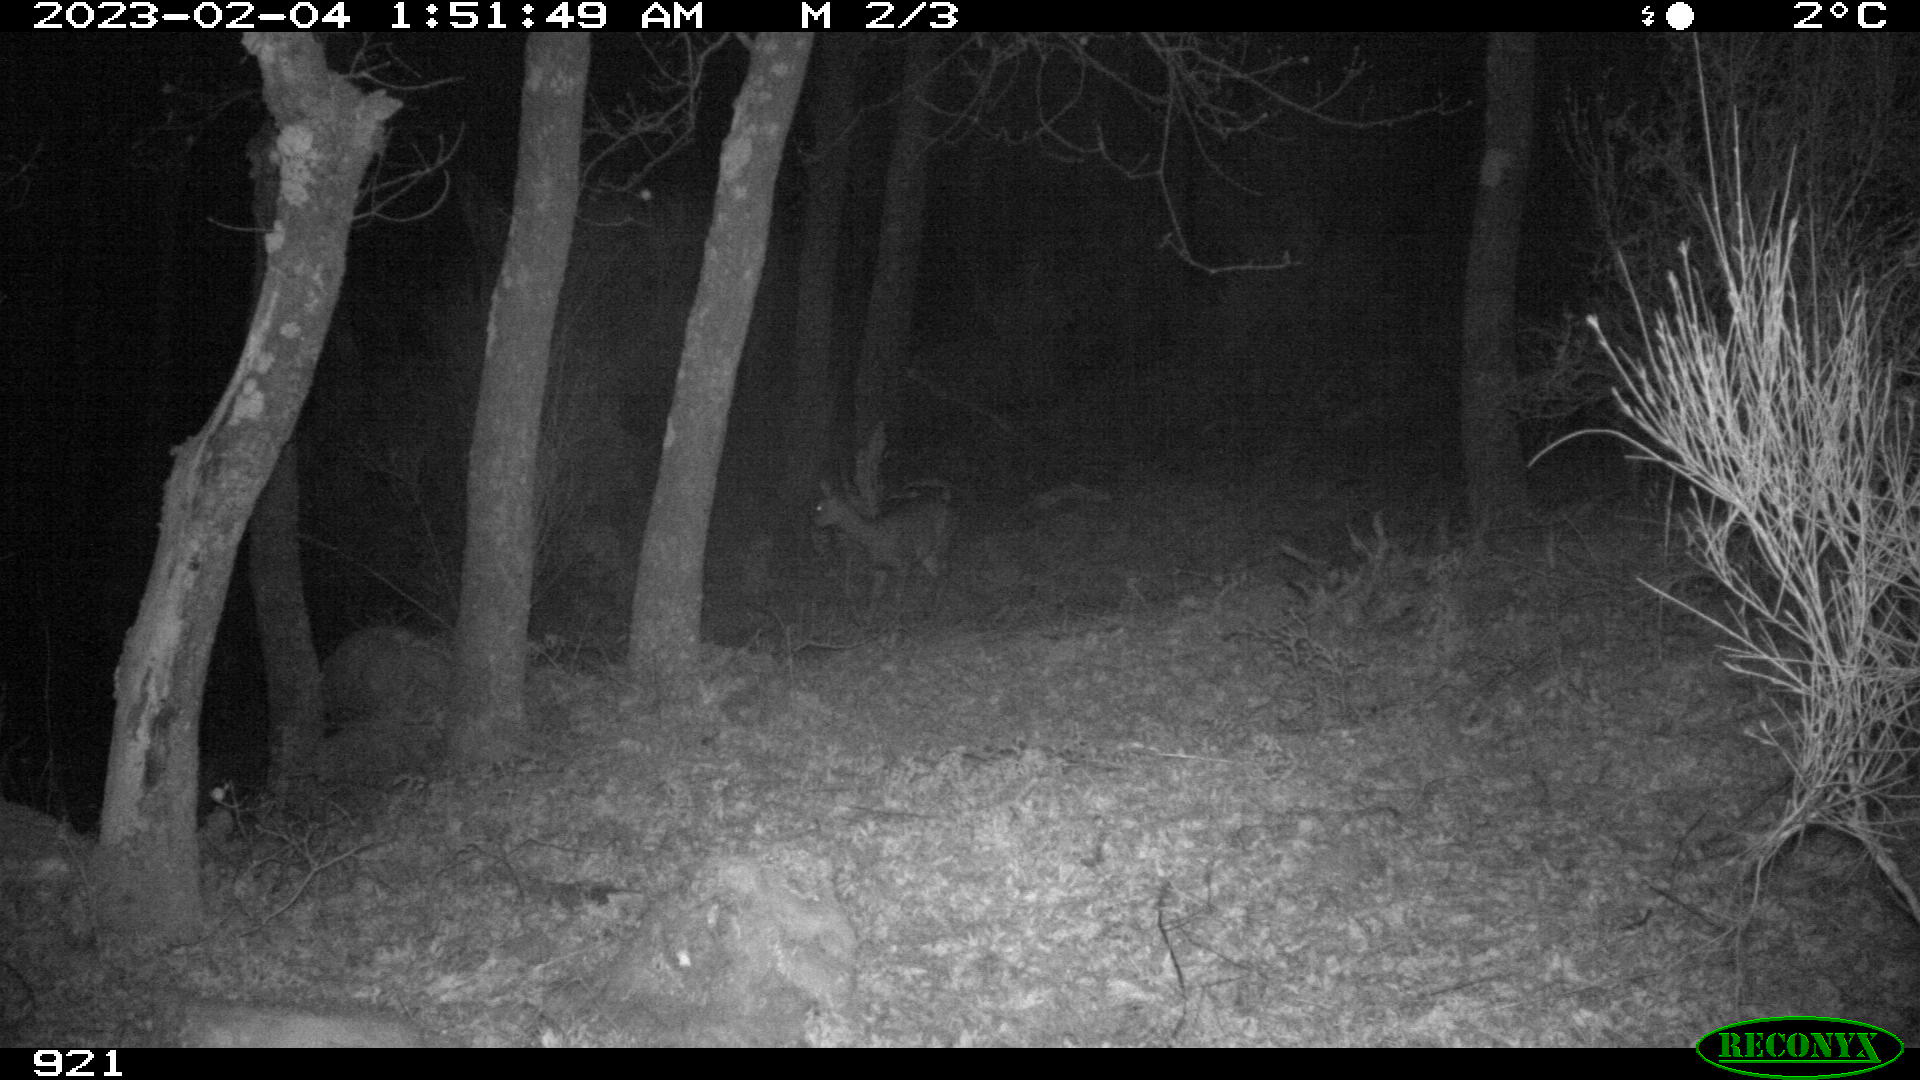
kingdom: Animalia
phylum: Chordata
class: Mammalia
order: Artiodactyla
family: Cervidae
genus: Capreolus
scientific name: Capreolus capreolus
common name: Western roe deer
